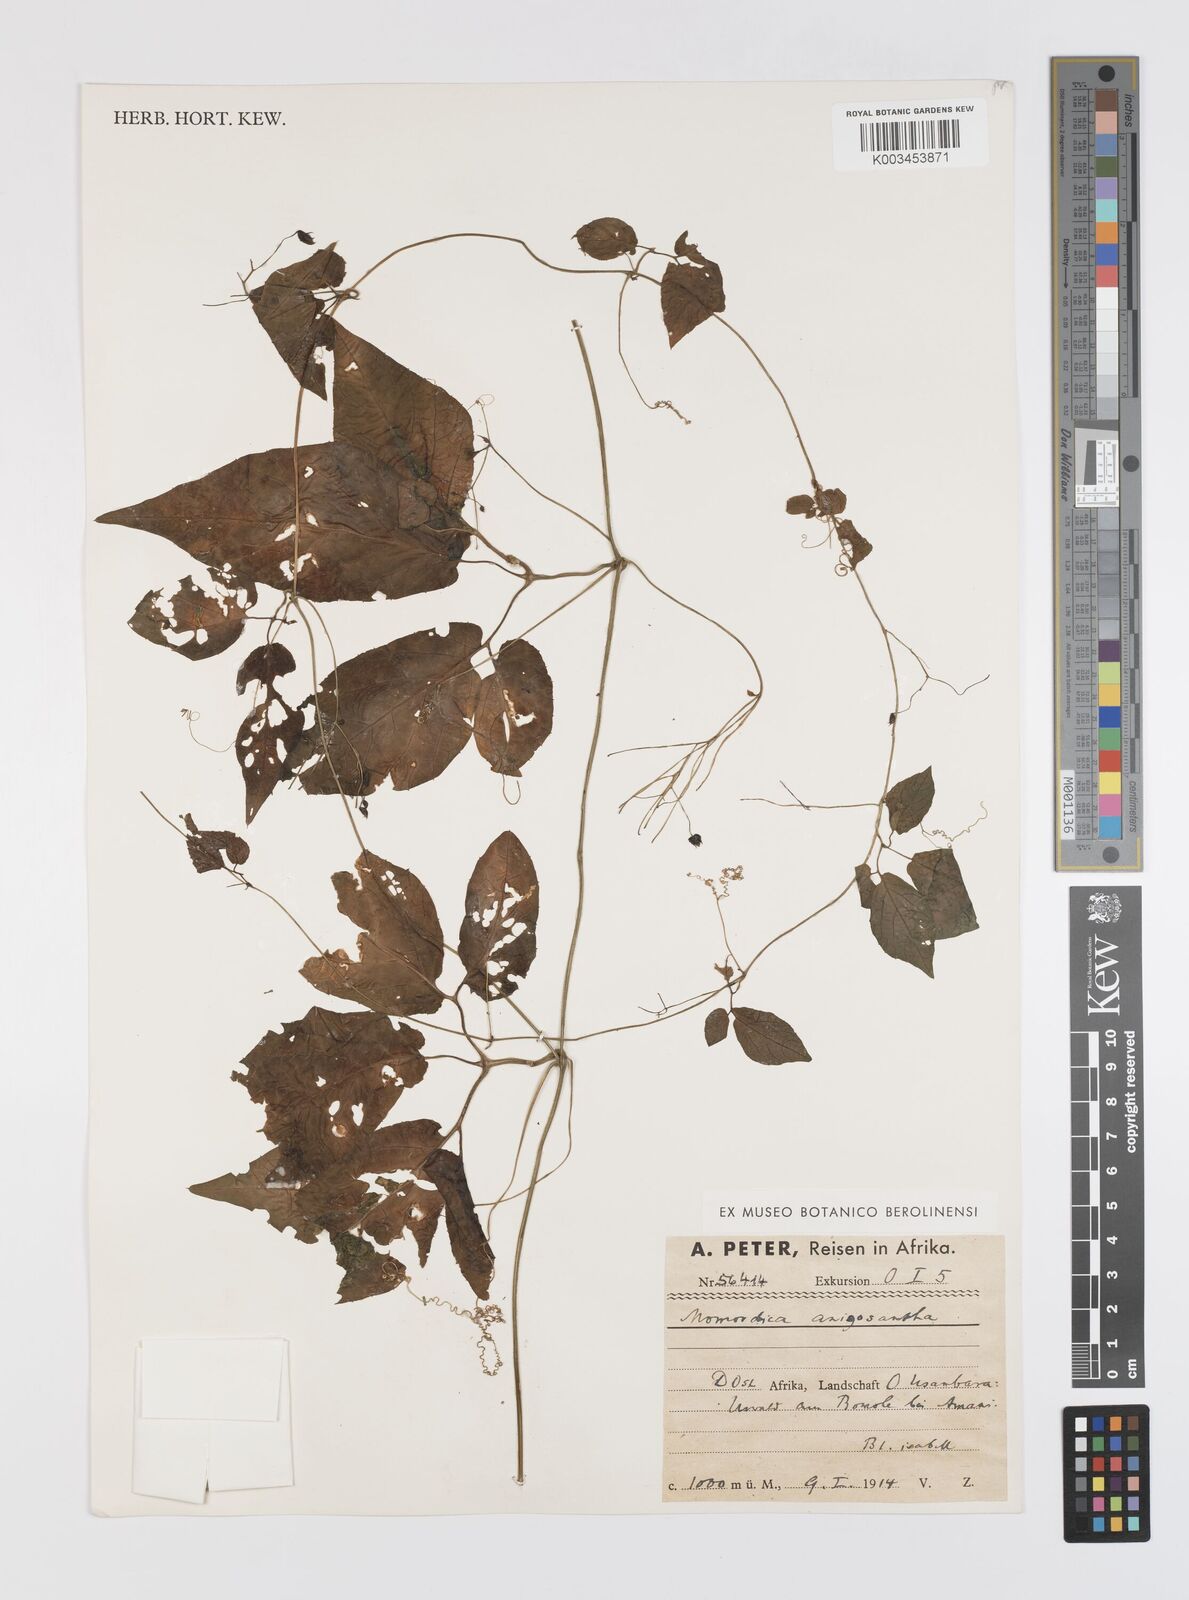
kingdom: Plantae
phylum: Tracheophyta
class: Magnoliopsida
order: Cucurbitales
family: Cucurbitaceae
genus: Momordica
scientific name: Momordica anigosantha
